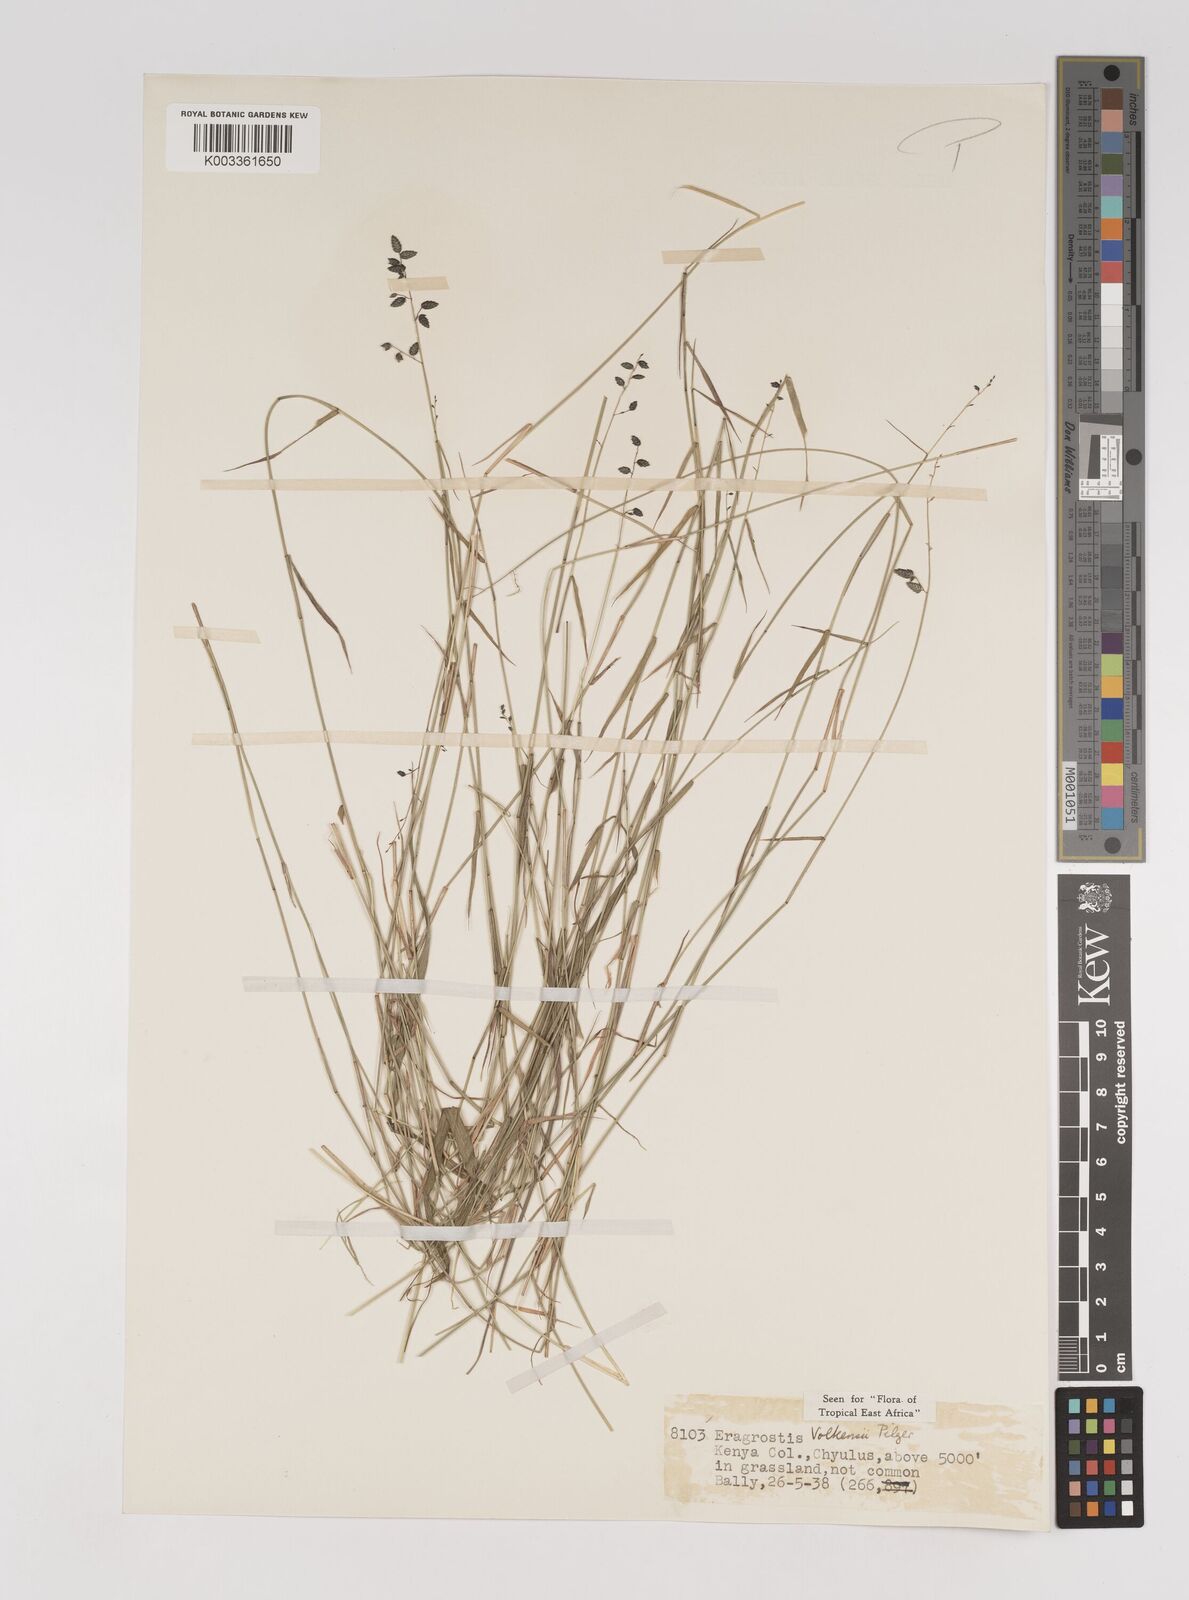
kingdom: Plantae
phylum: Tracheophyta
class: Liliopsida
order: Poales
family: Poaceae
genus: Eragrostis
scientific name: Eragrostis volkensii
